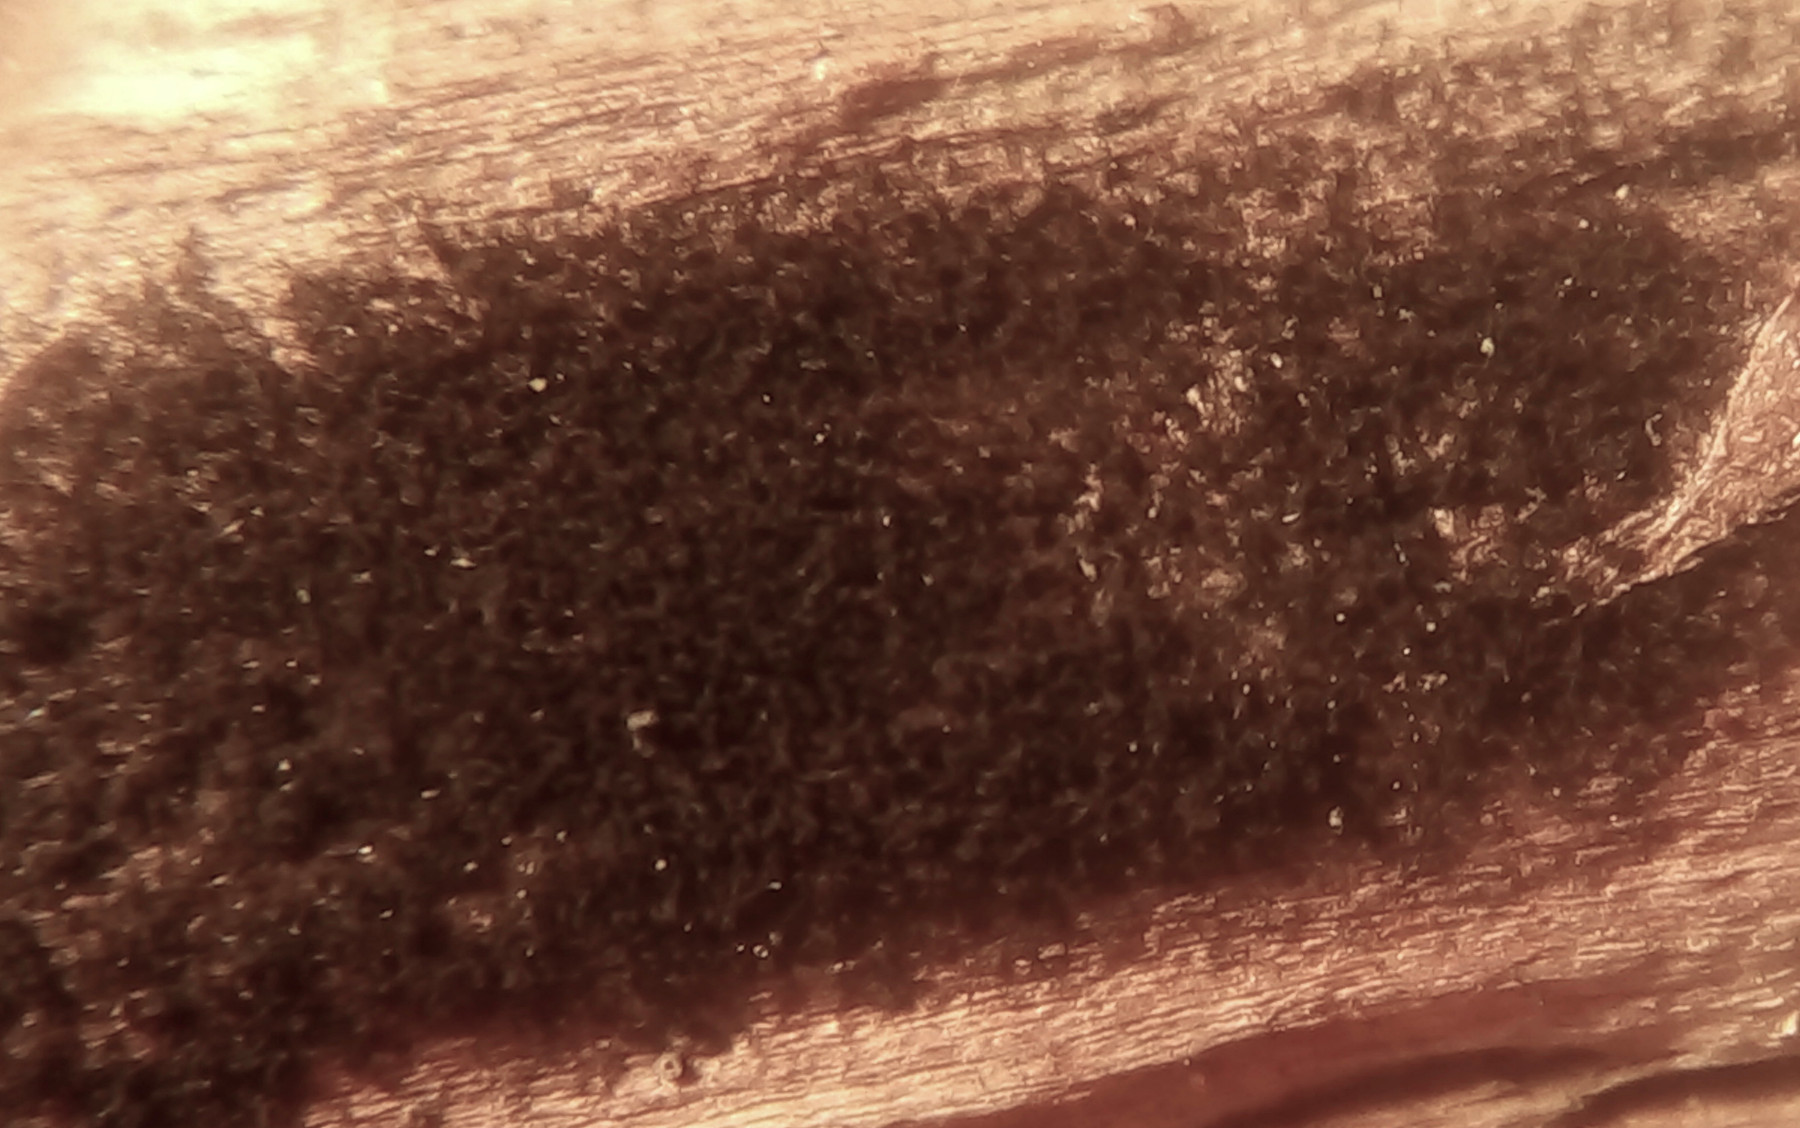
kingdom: Fungi
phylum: Ascomycota
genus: Taeniolina
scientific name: Taeniolina scripta
